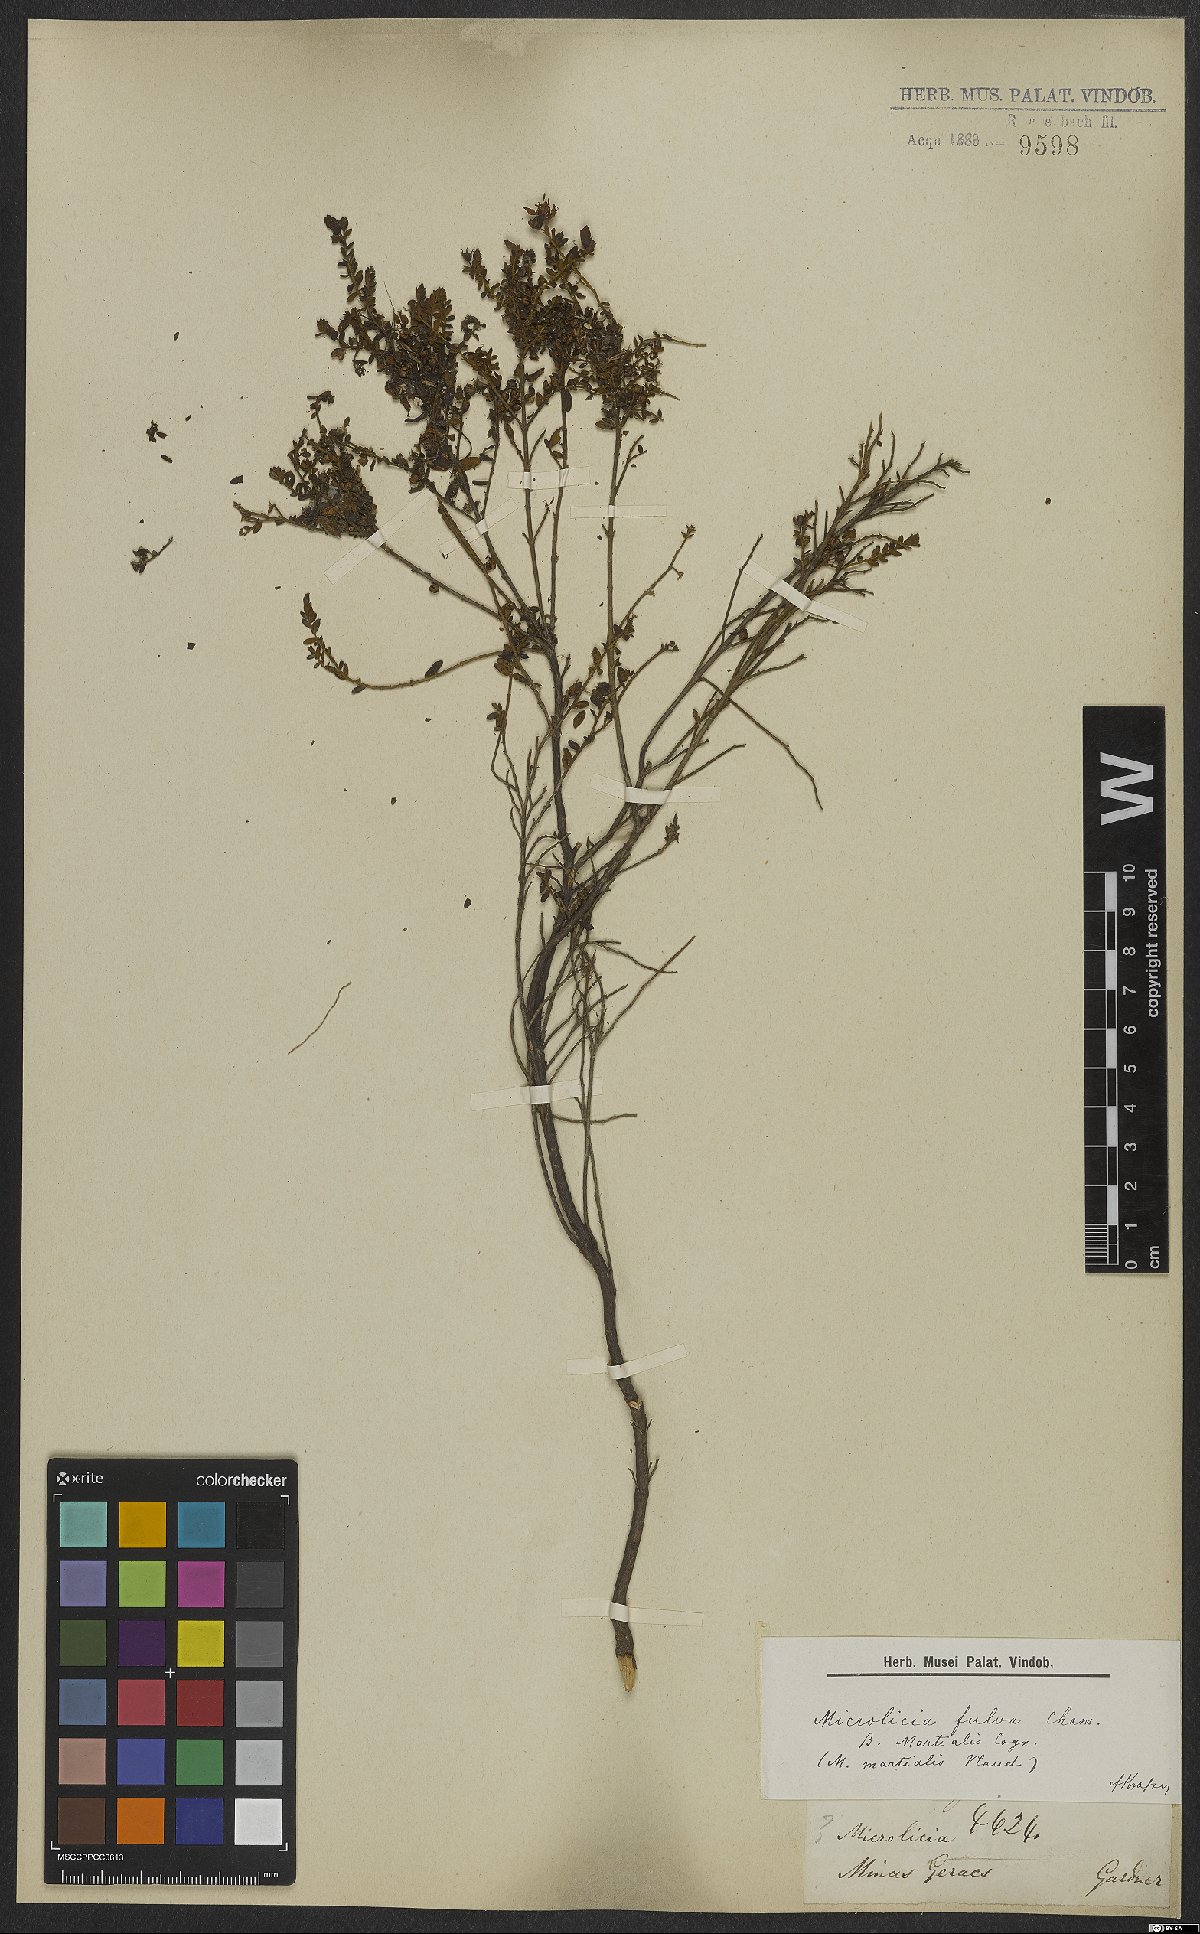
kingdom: Plantae
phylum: Tracheophyta
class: Magnoliopsida
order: Myrtales
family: Melastomataceae
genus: Microlicia
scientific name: Microlicia fulva
